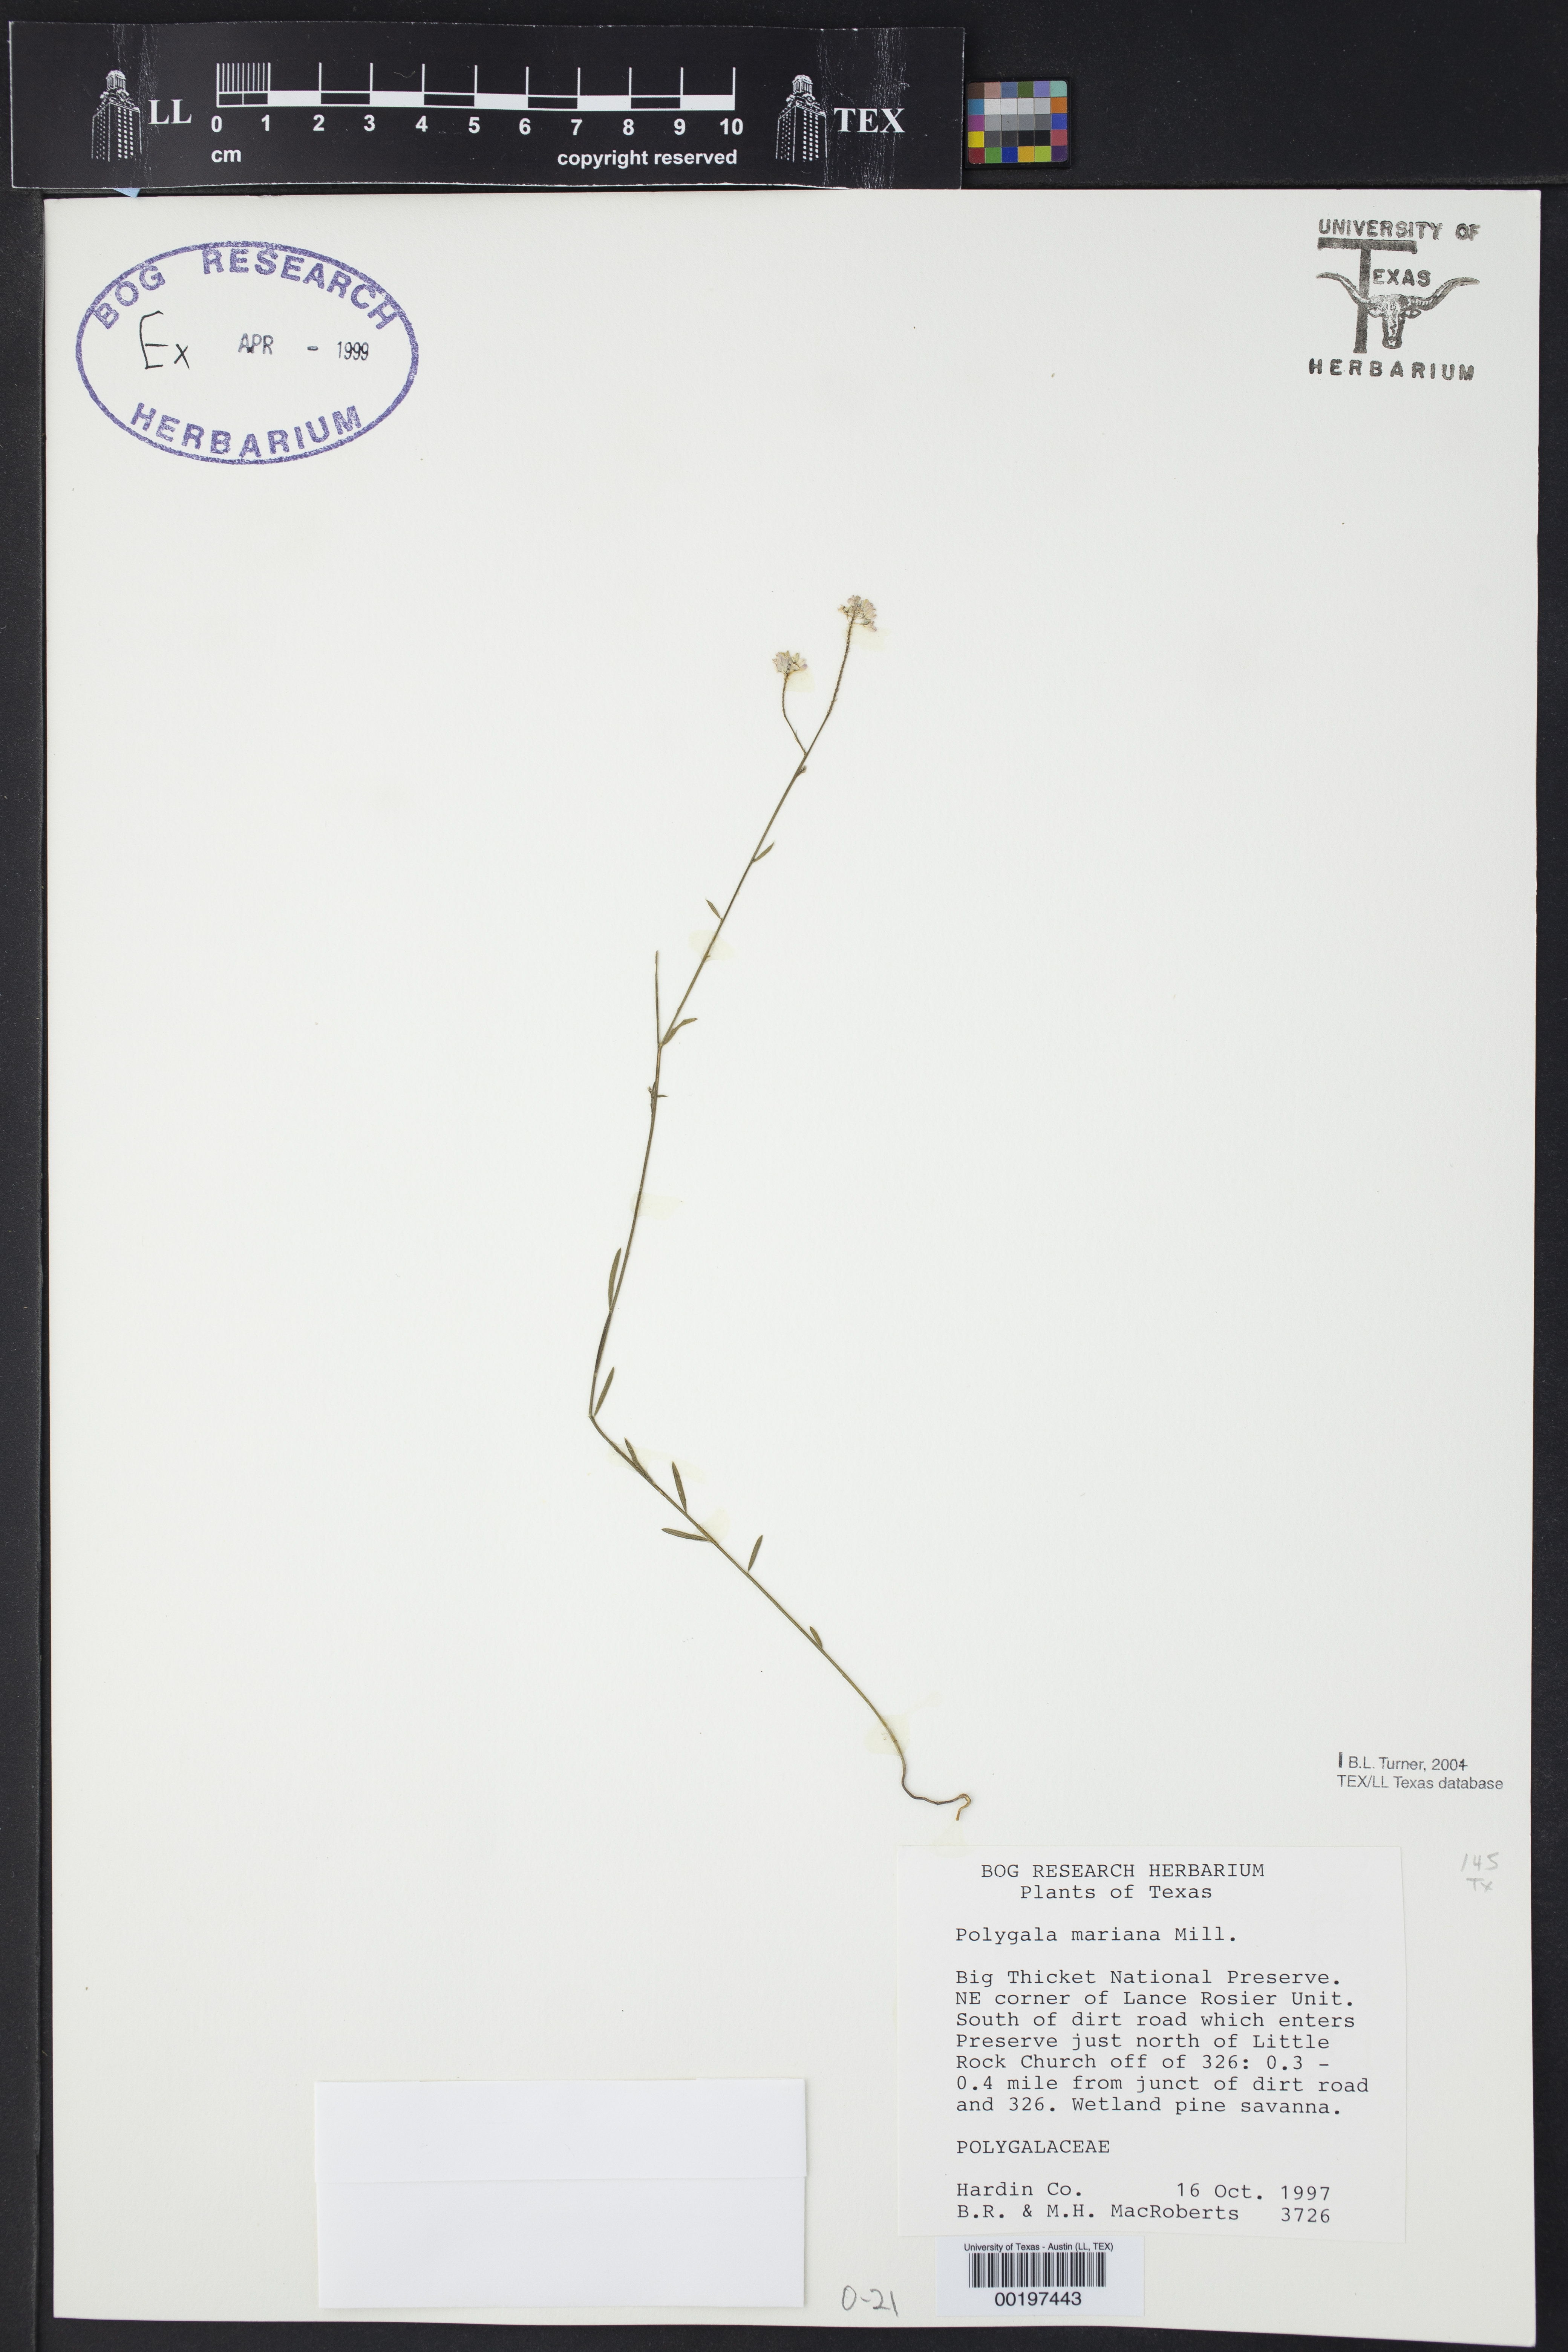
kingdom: Plantae
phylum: Tracheophyta
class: Magnoliopsida
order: Fabales
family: Polygalaceae
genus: Polygala
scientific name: Polygala mariana
